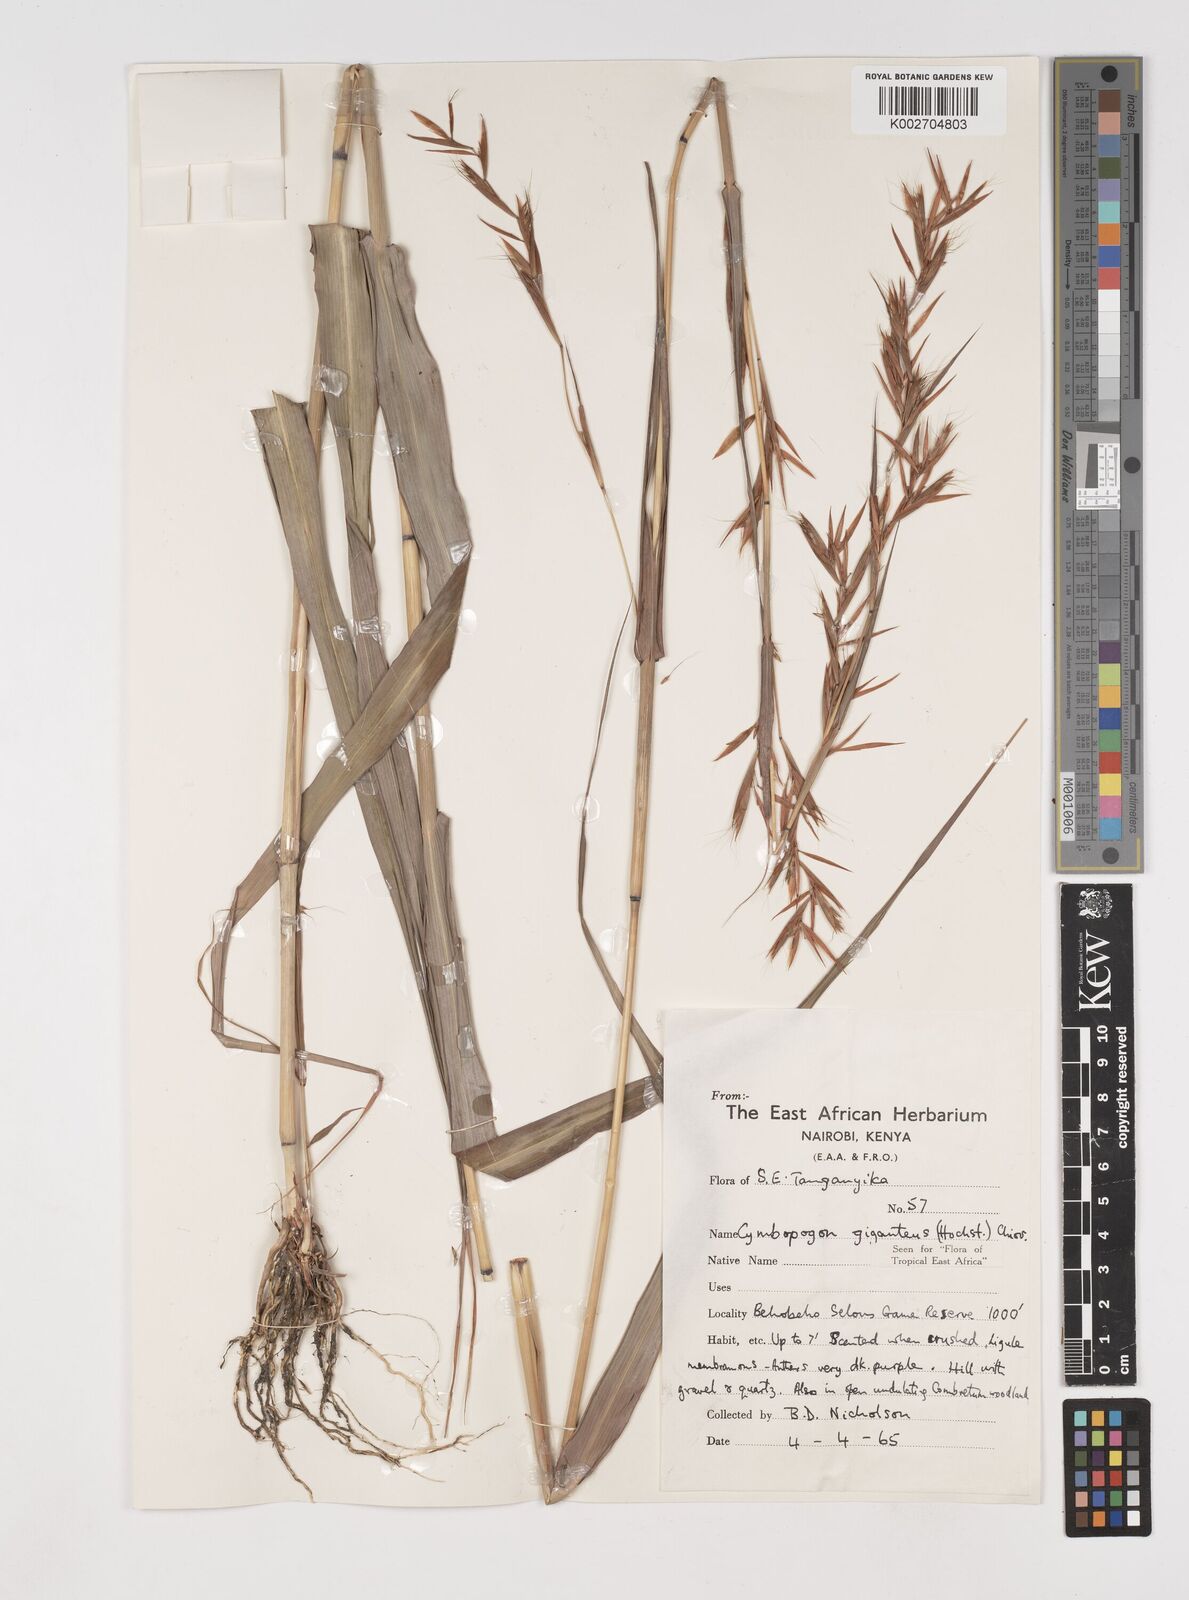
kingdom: Plantae
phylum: Tracheophyta
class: Liliopsida
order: Poales
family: Poaceae
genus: Cymbopogon
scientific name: Cymbopogon giganteus
